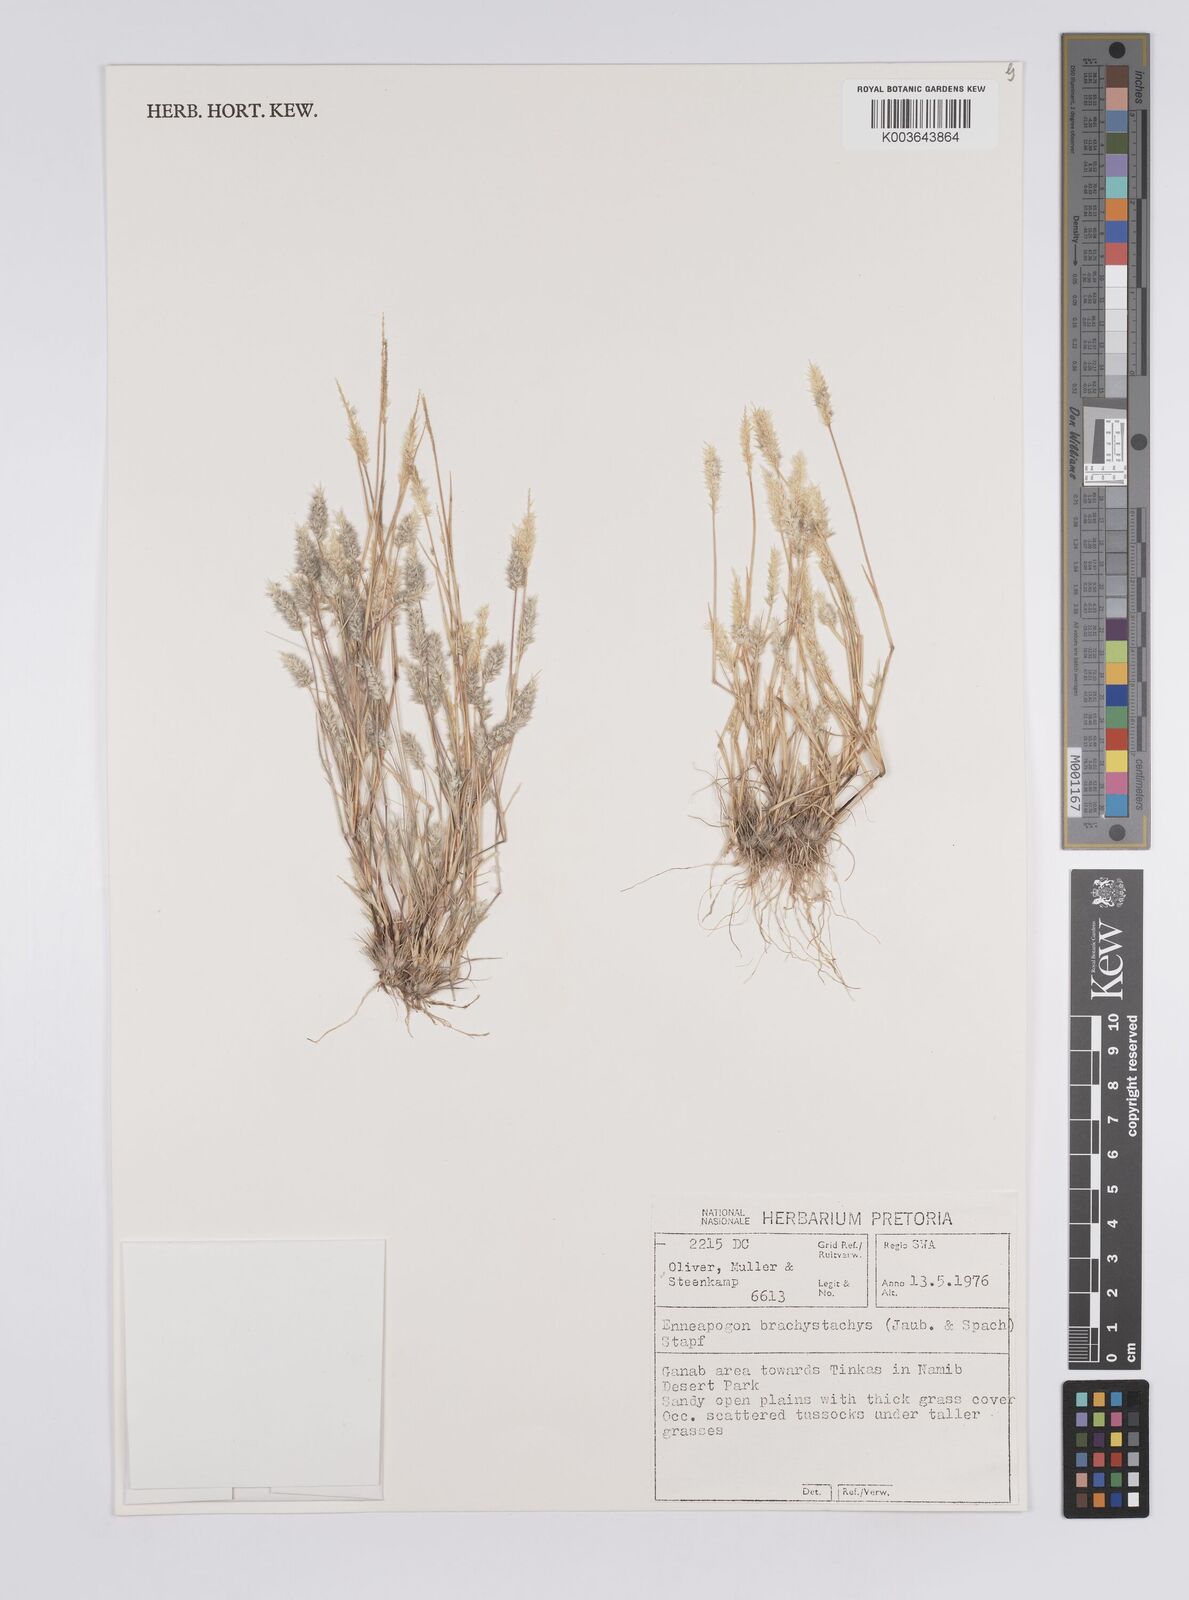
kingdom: Plantae
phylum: Tracheophyta
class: Liliopsida
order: Poales
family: Poaceae
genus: Enneapogon
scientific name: Enneapogon desvauxii
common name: Feather pappus grass
